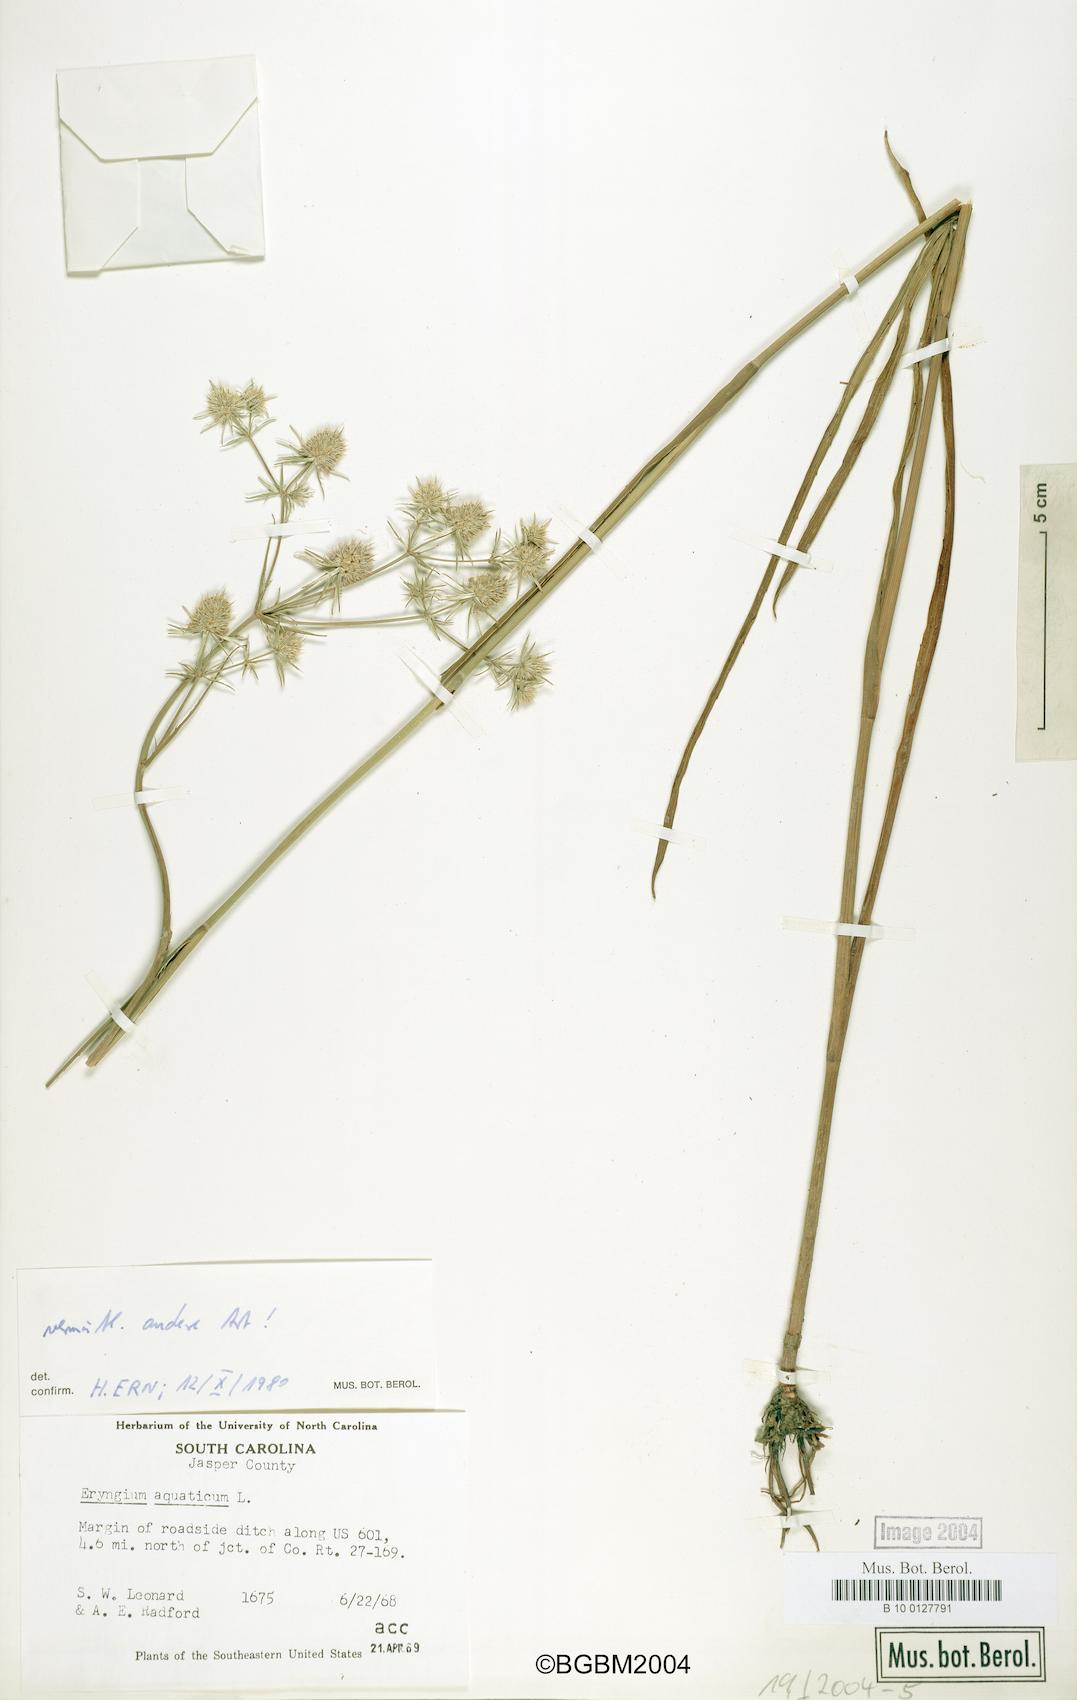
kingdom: Plantae
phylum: Tracheophyta
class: Magnoliopsida
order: Apiales
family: Apiaceae
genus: Eryngium
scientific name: Eryngium aquaticum
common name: Water eryngo
